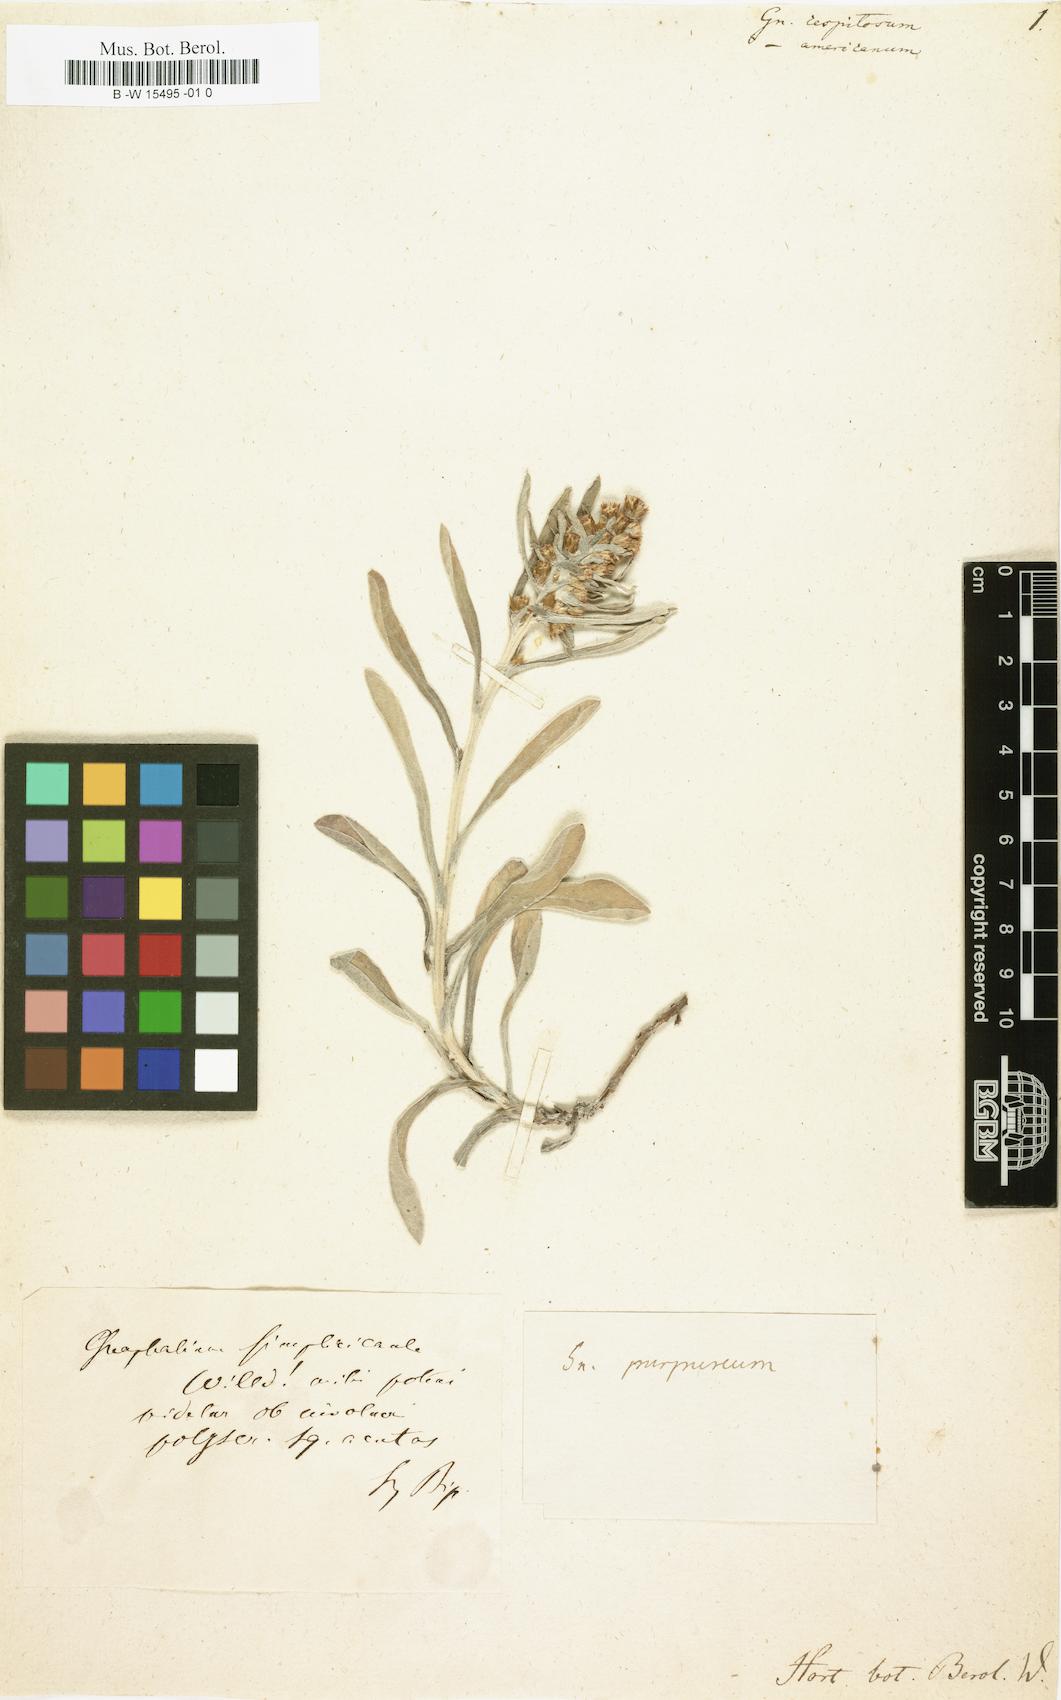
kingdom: Plantae
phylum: Tracheophyta
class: Magnoliopsida
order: Asterales
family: Asteraceae
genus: Helichrysum
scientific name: Helichrysum
